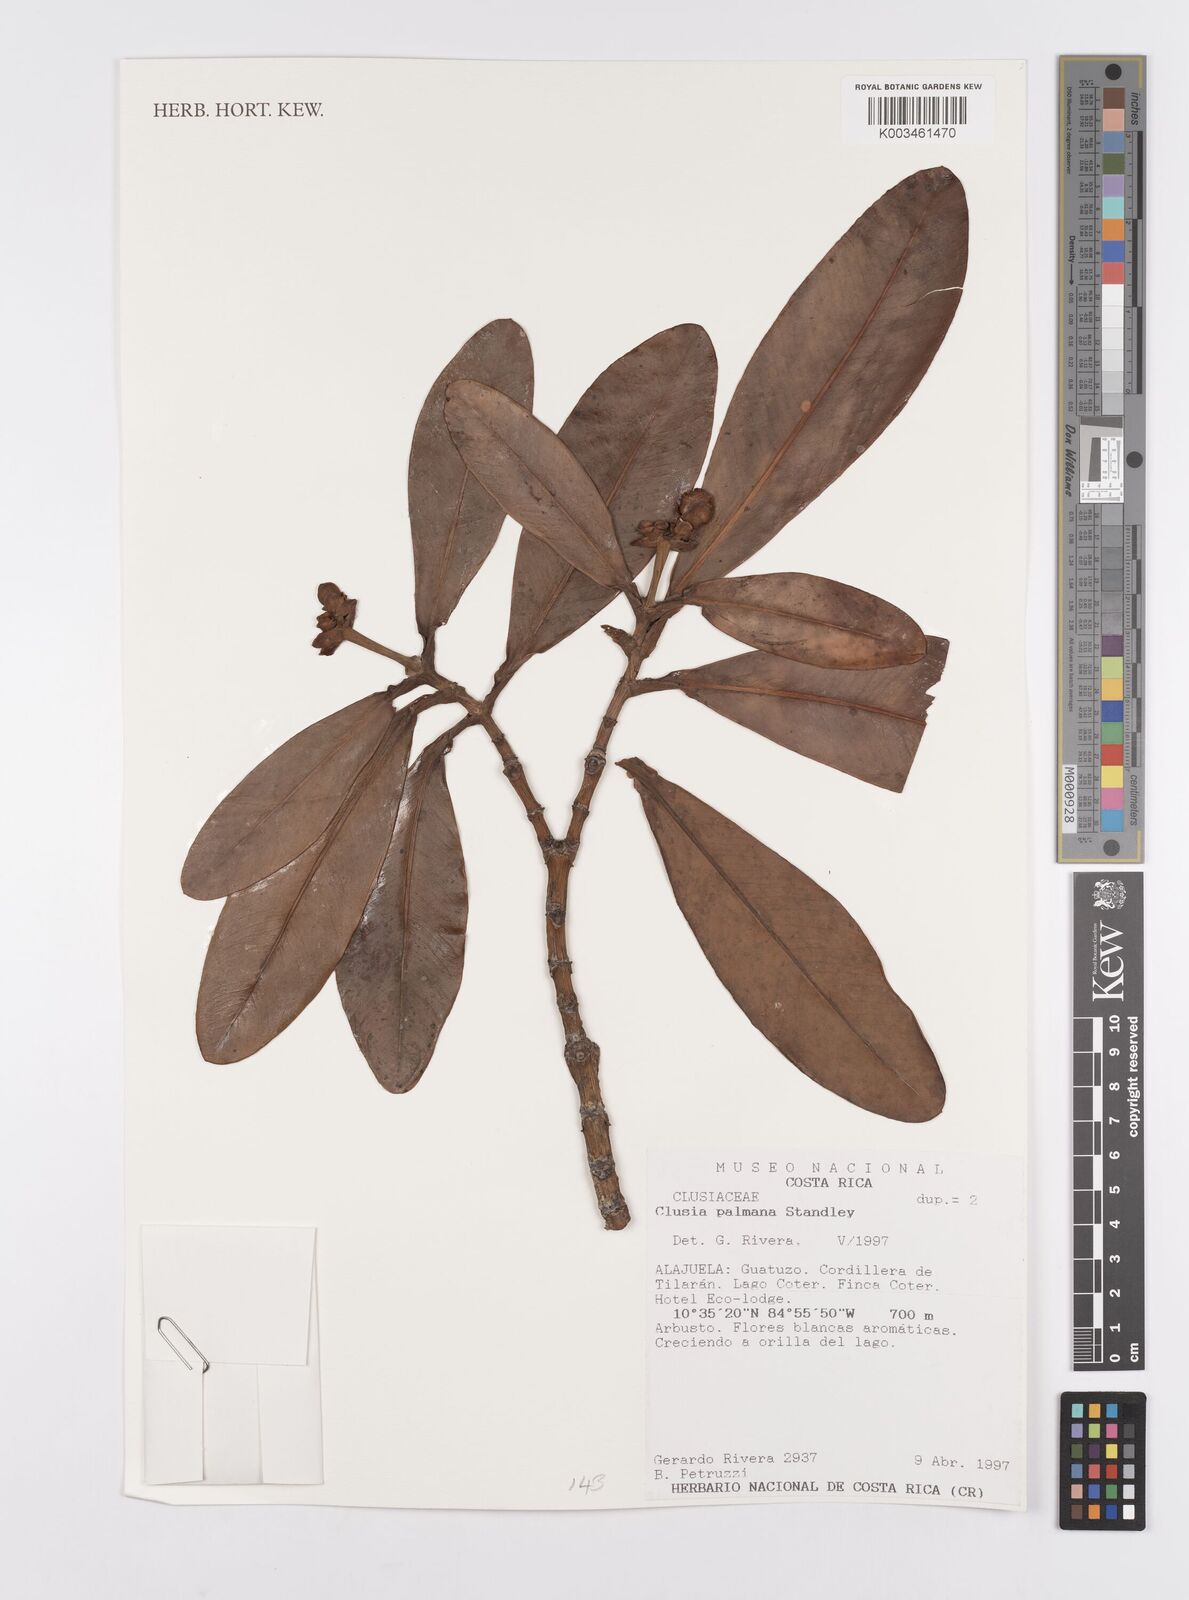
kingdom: Plantae
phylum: Tracheophyta
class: Magnoliopsida
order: Malpighiales
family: Clusiaceae
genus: Clusia
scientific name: Clusia palmana
